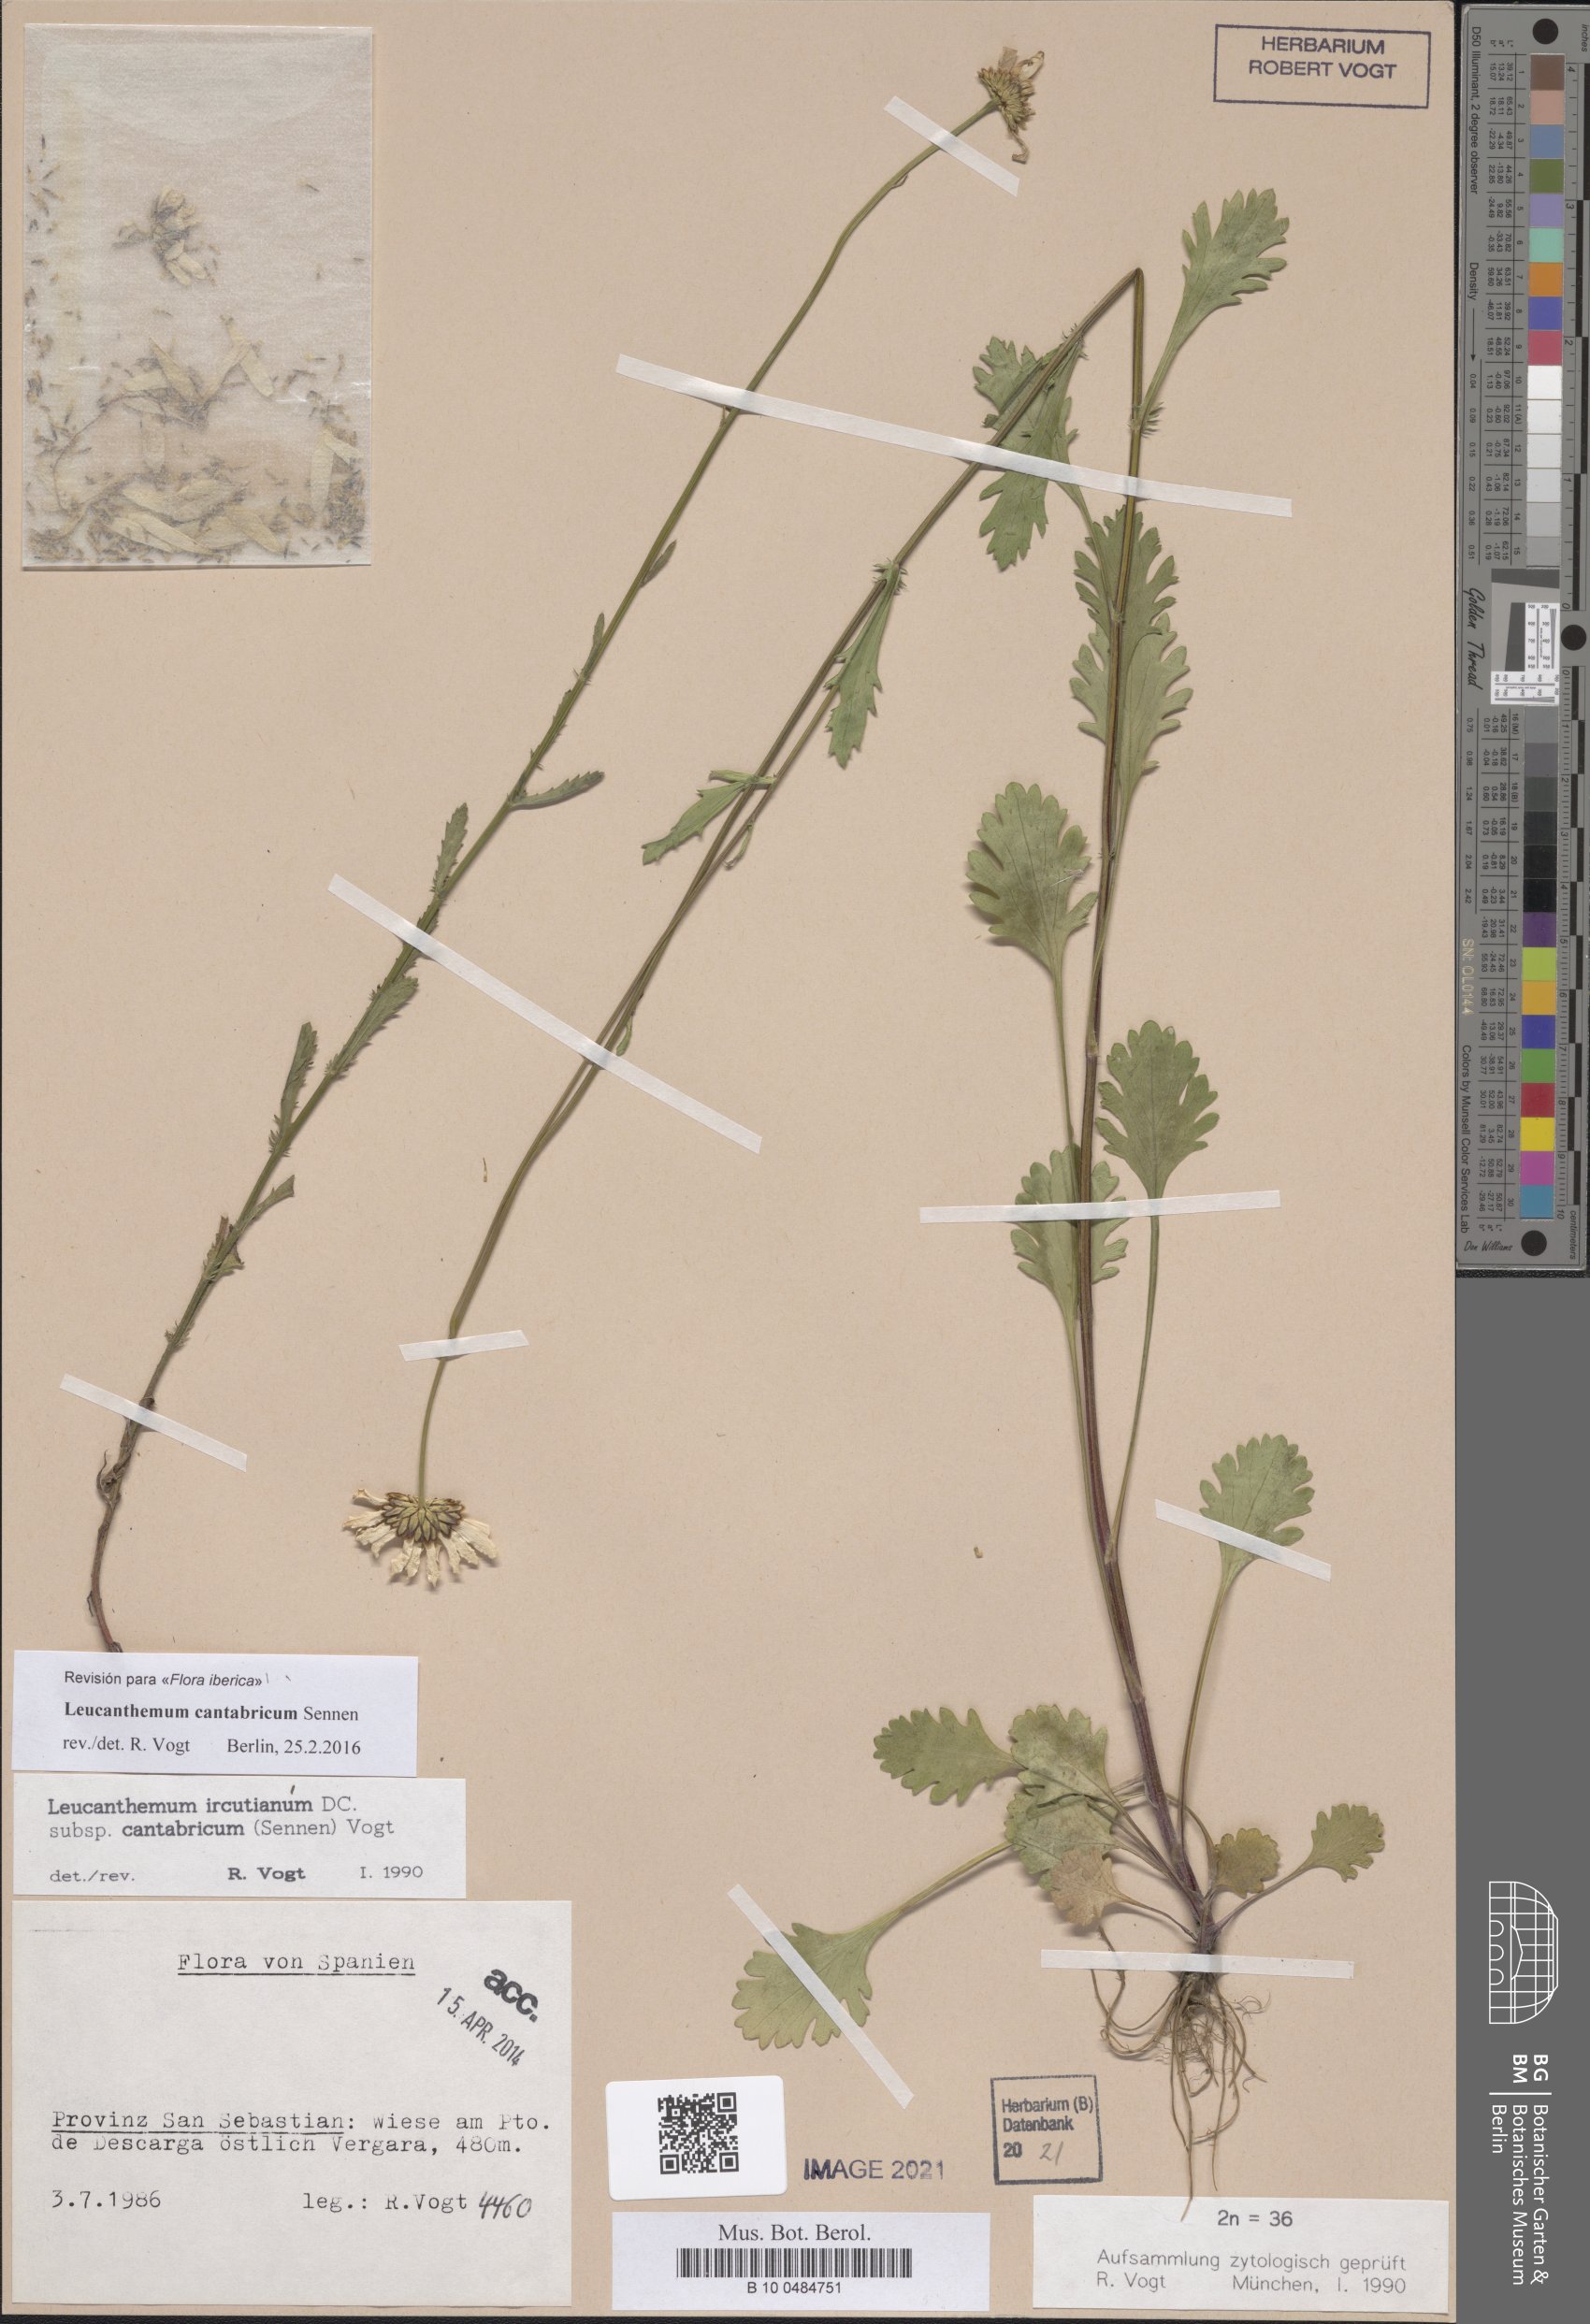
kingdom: Plantae
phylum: Tracheophyta
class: Magnoliopsida
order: Asterales
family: Asteraceae
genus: Leucanthemum
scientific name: Leucanthemum cantabricum
